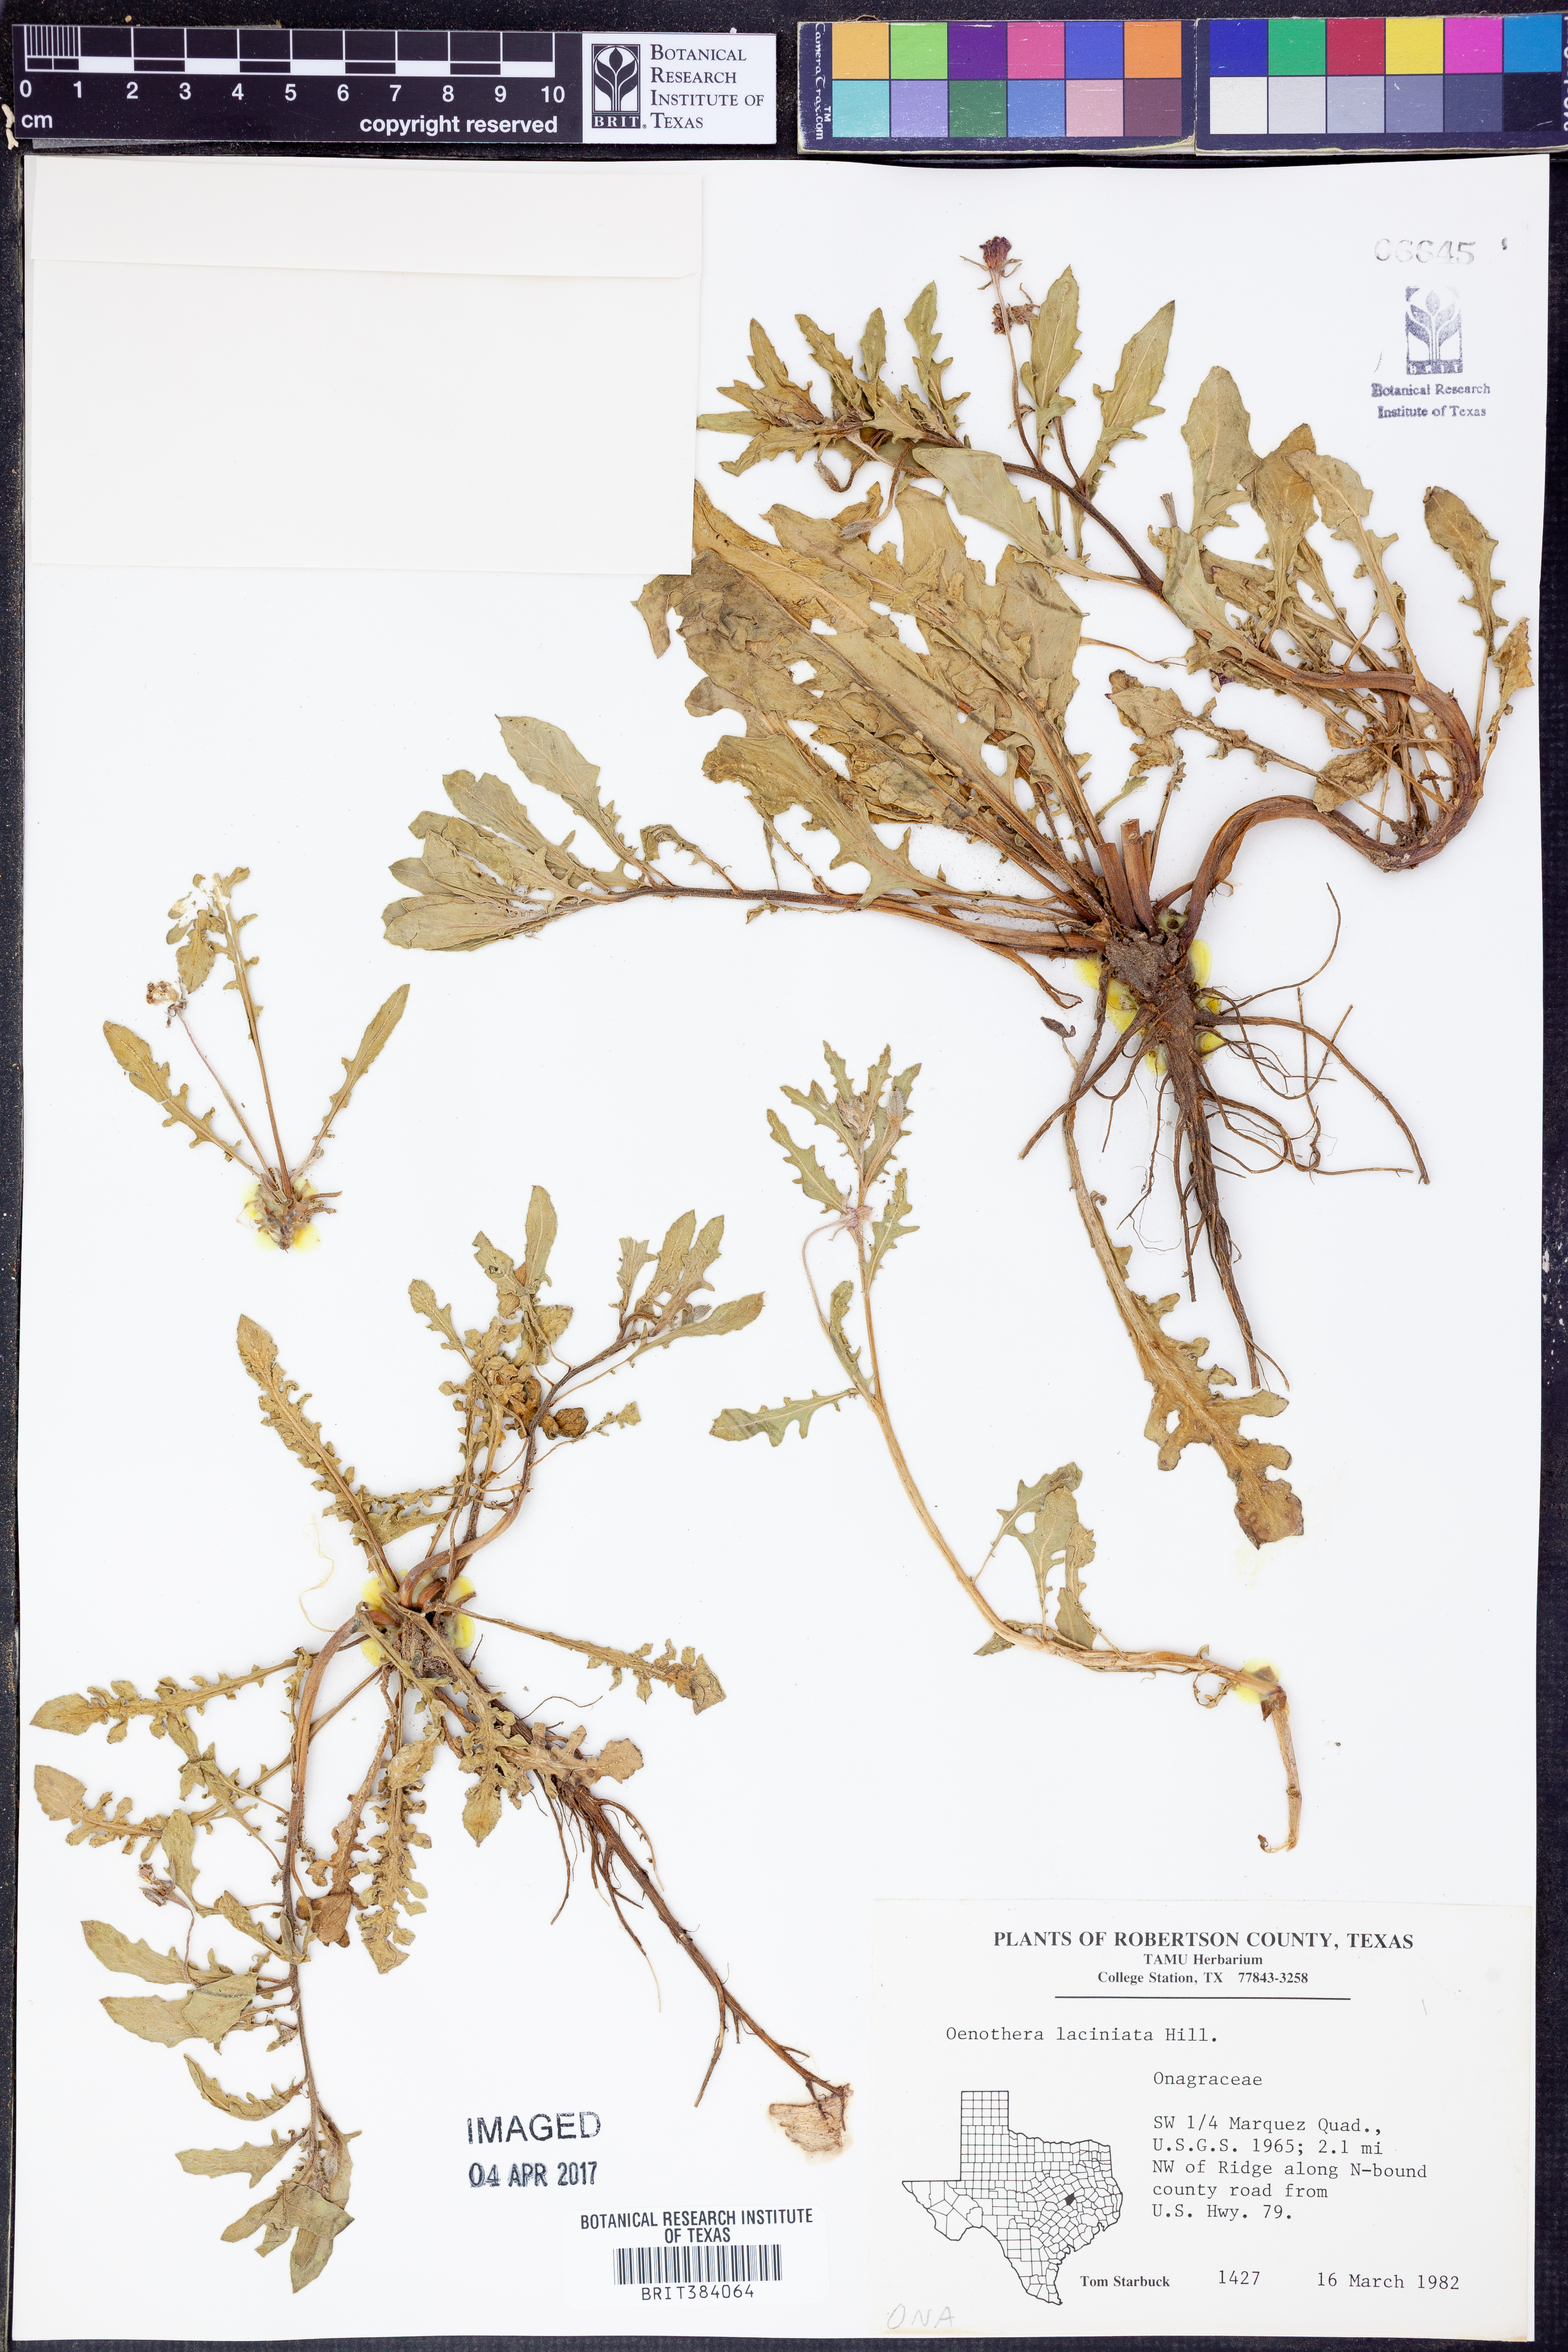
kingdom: Plantae
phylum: Tracheophyta
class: Magnoliopsida
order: Myrtales
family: Onagraceae
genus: Oenothera
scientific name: Oenothera laciniata
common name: Cut-leaved evening-primrose
